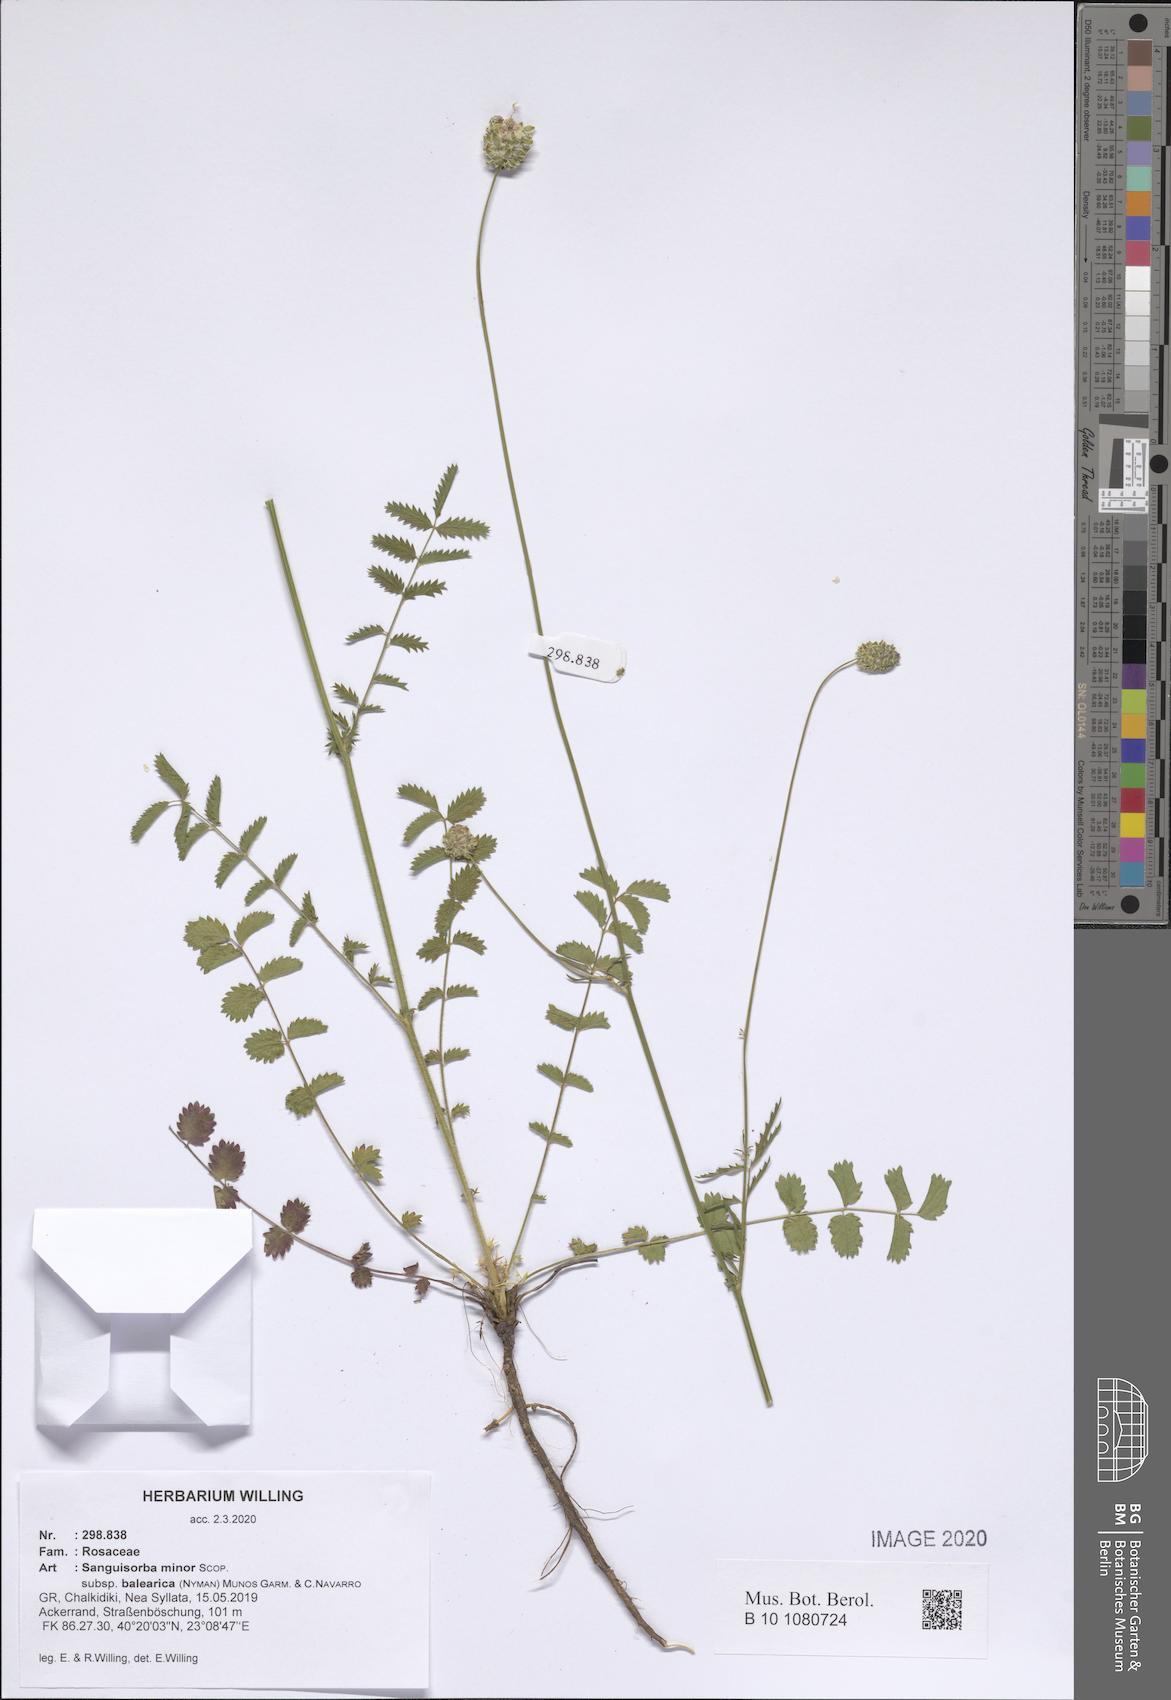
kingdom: Plantae
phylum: Tracheophyta
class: Magnoliopsida
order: Rosales
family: Rosaceae
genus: Poterium
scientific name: Poterium sanguisorba
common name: Salad burnet
